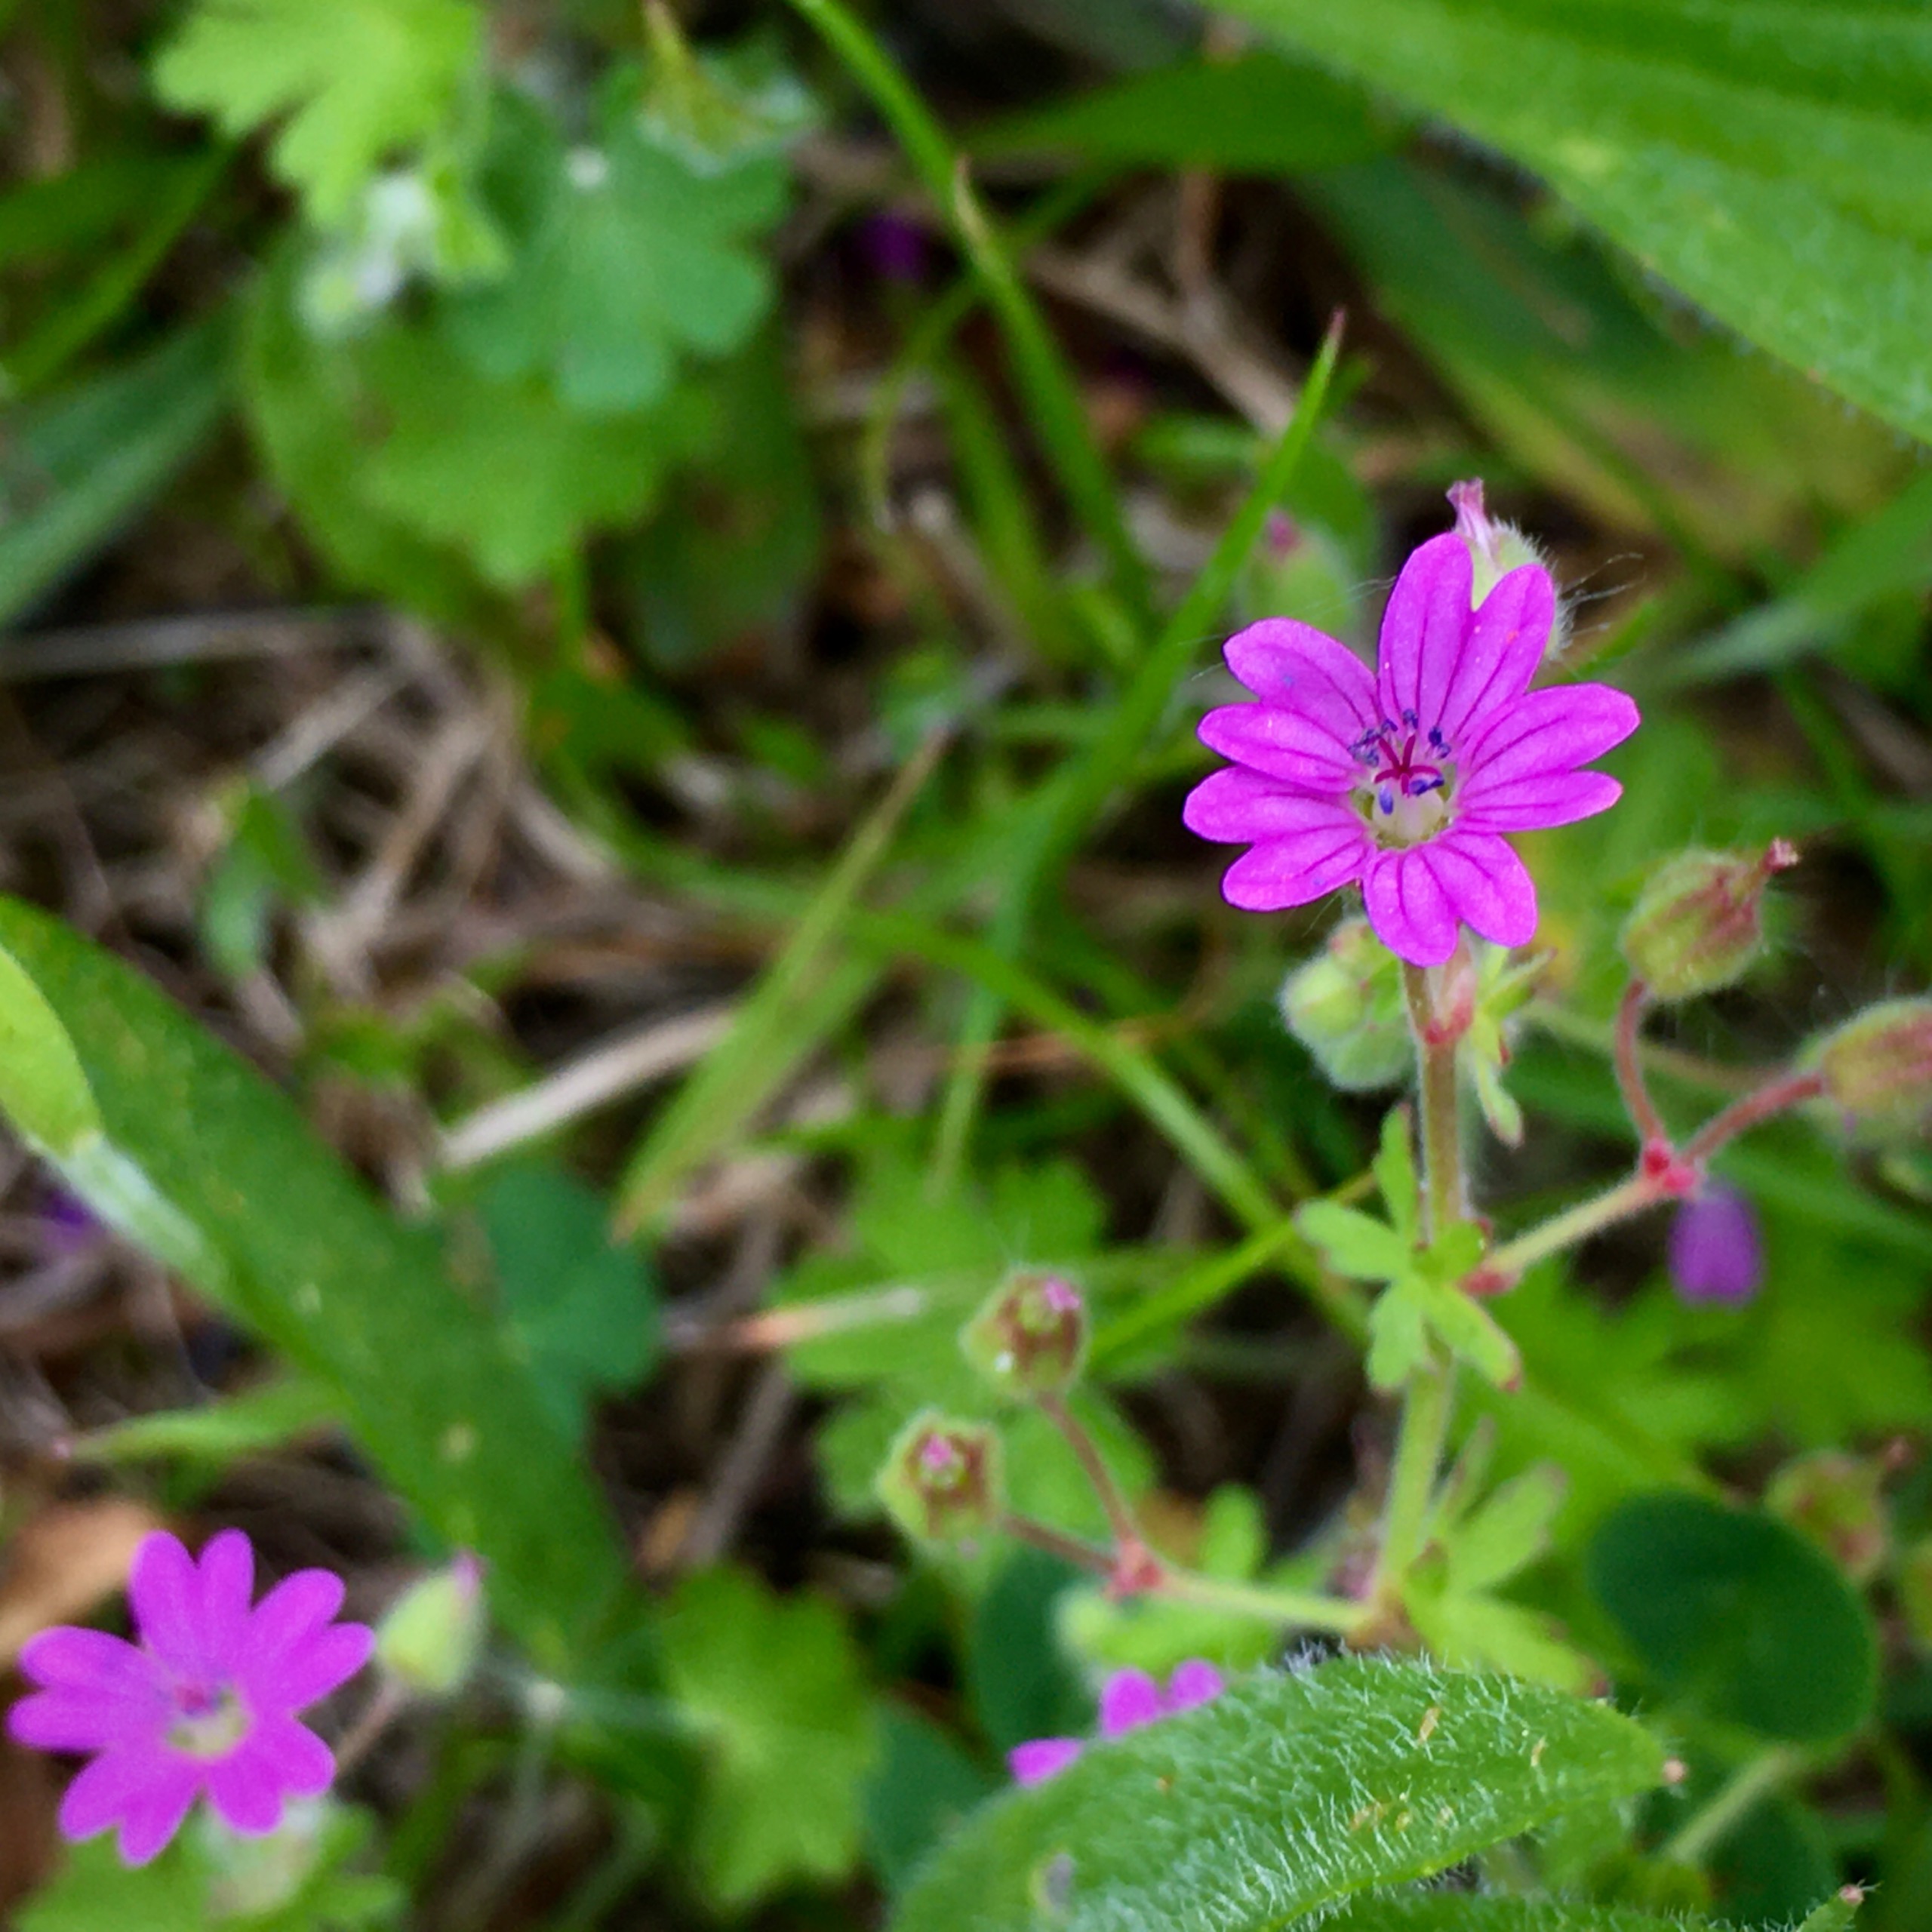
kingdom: Plantae
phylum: Tracheophyta
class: Magnoliopsida
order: Geraniales
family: Geraniaceae
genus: Geranium
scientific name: Geranium pyrenaicum
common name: Pyrenæisk storkenæb
